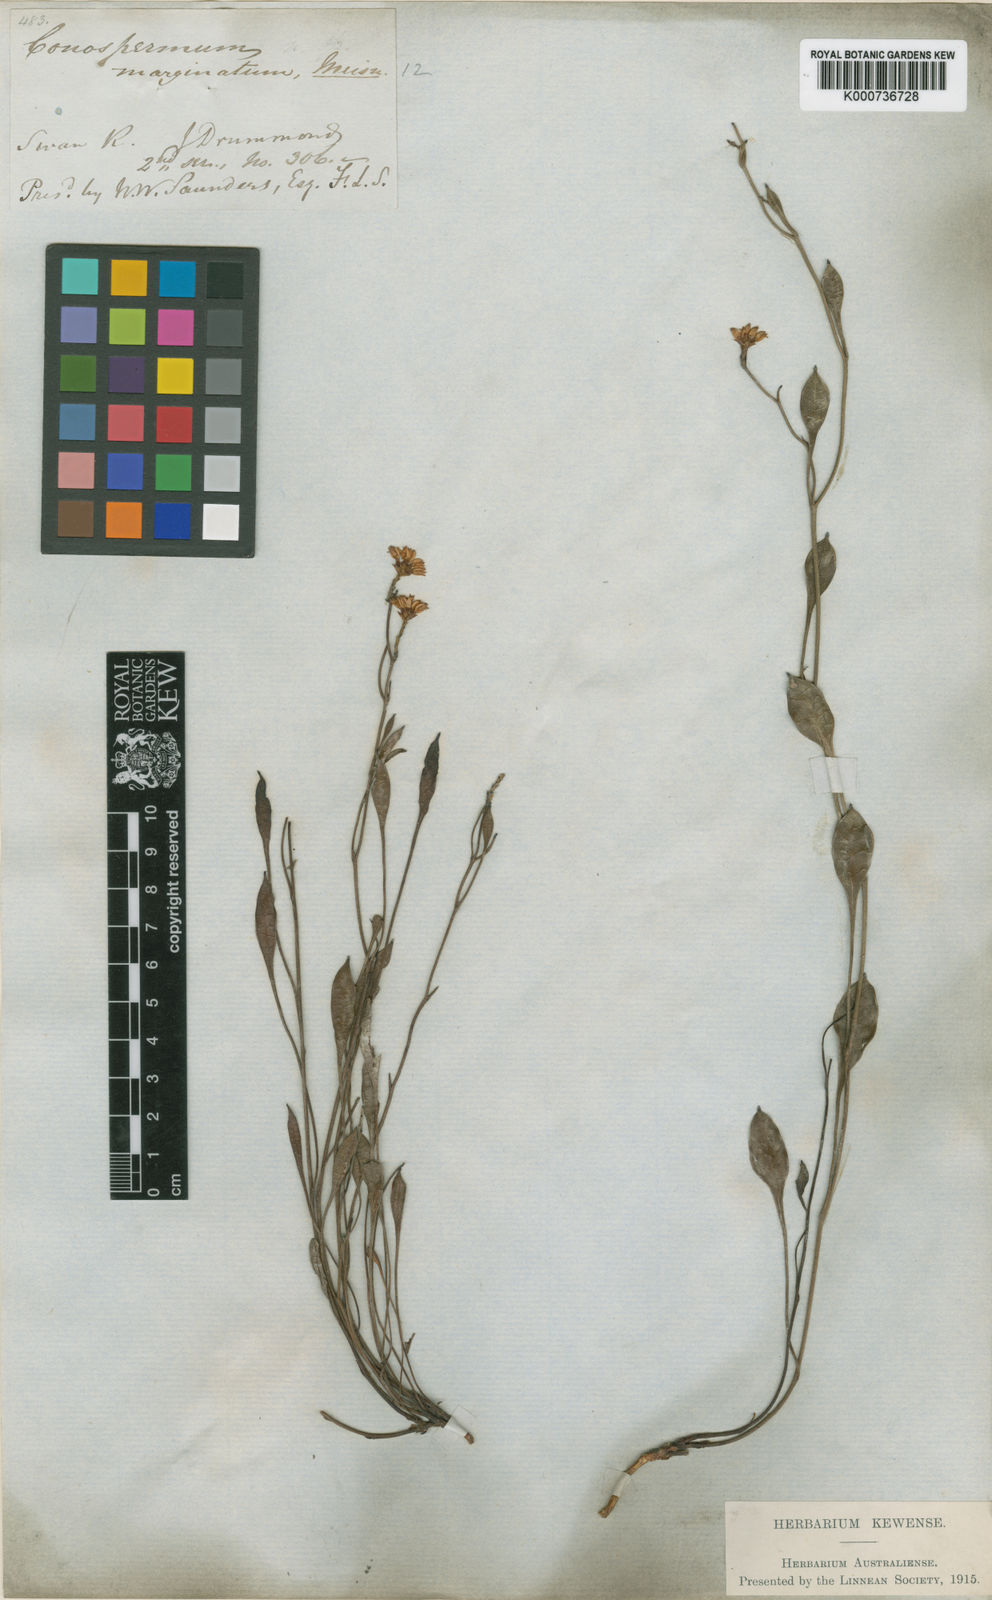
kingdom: Plantae
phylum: Tracheophyta
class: Magnoliopsida
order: Proteales
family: Proteaceae
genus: Conospermum
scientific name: Conospermum caeruleum
